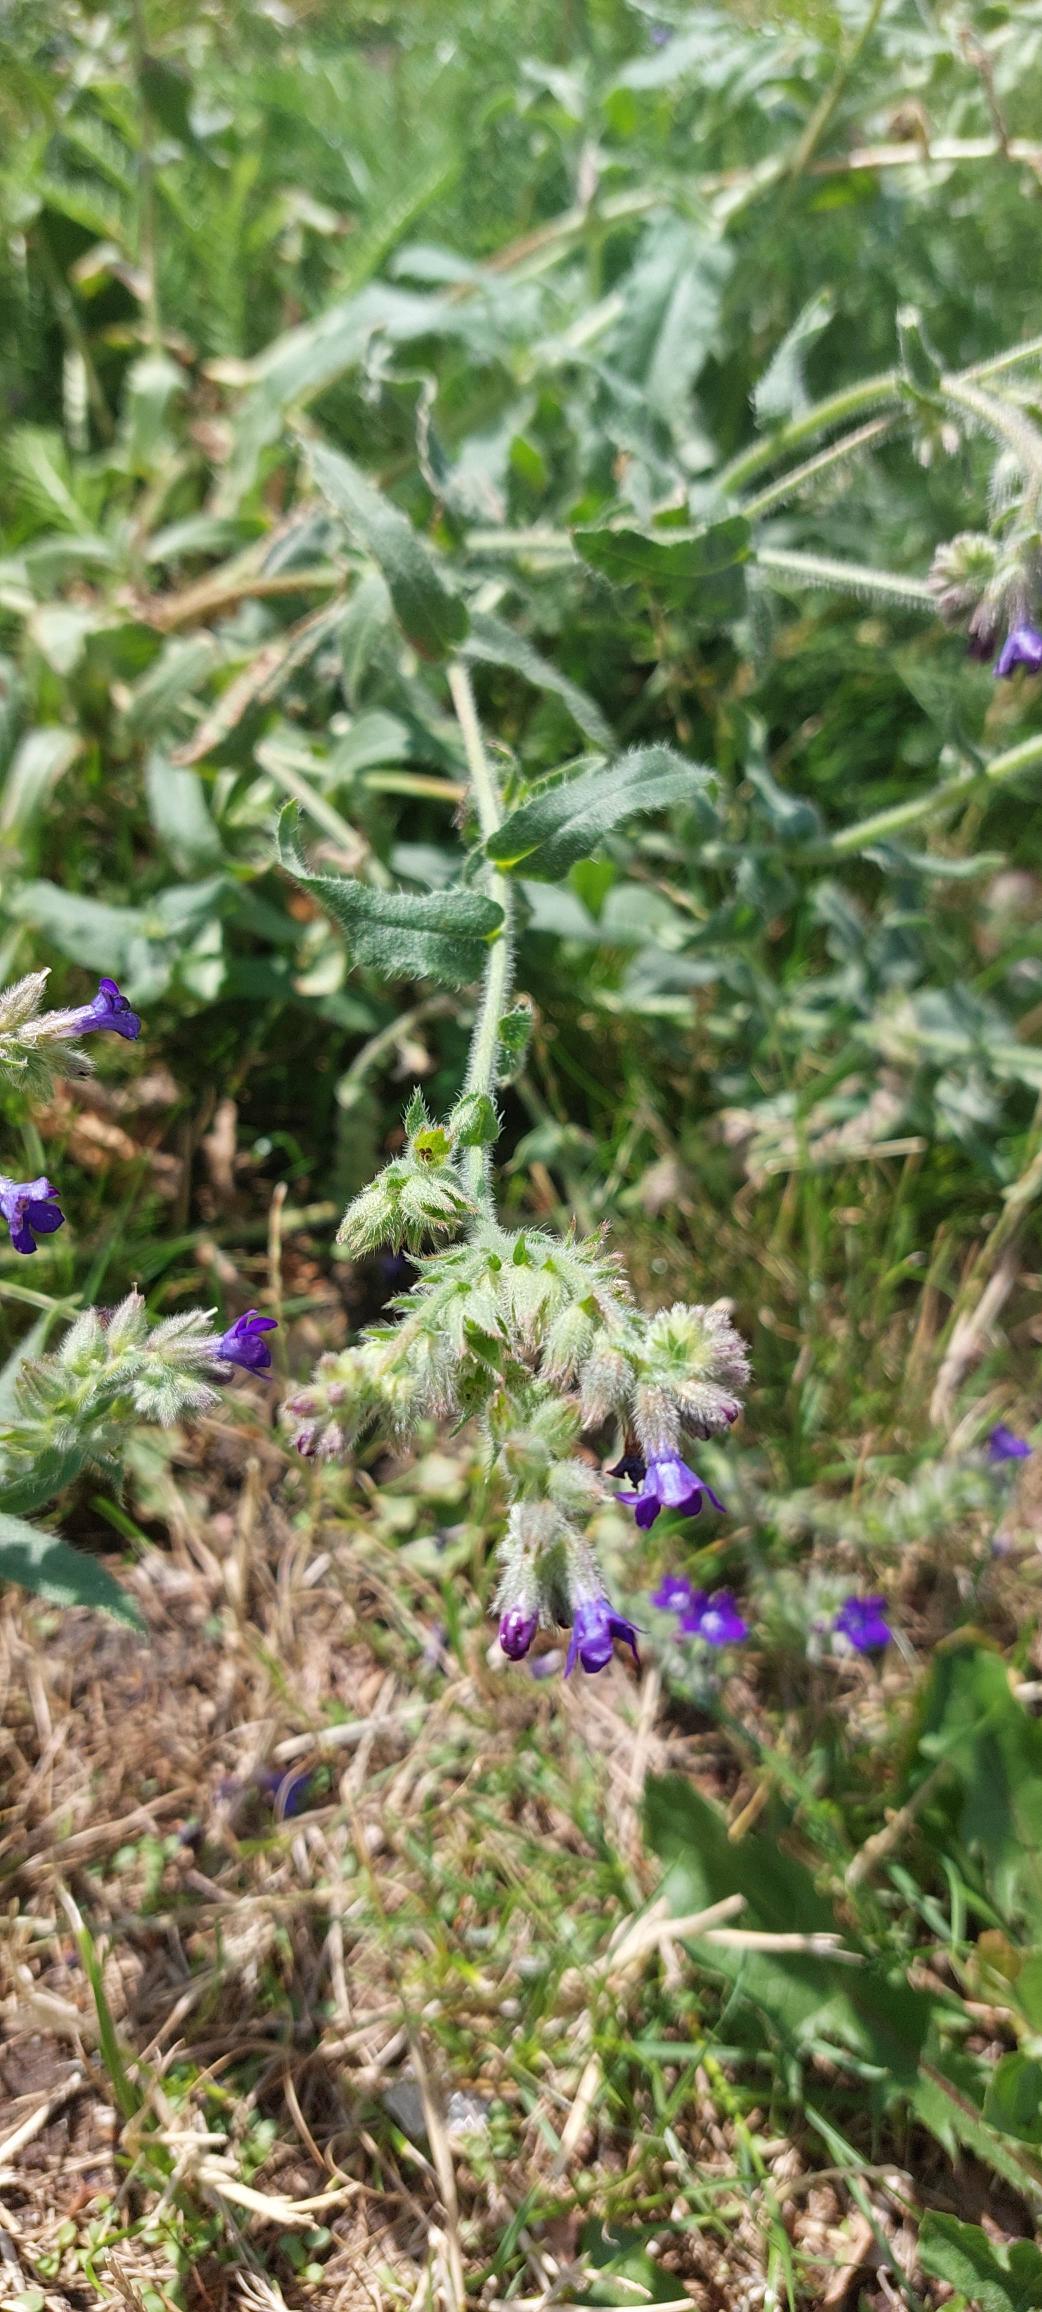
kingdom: Plantae
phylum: Tracheophyta
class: Magnoliopsida
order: Boraginales
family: Boraginaceae
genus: Anchusa
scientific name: Anchusa officinalis
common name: Læge-oksetunge
